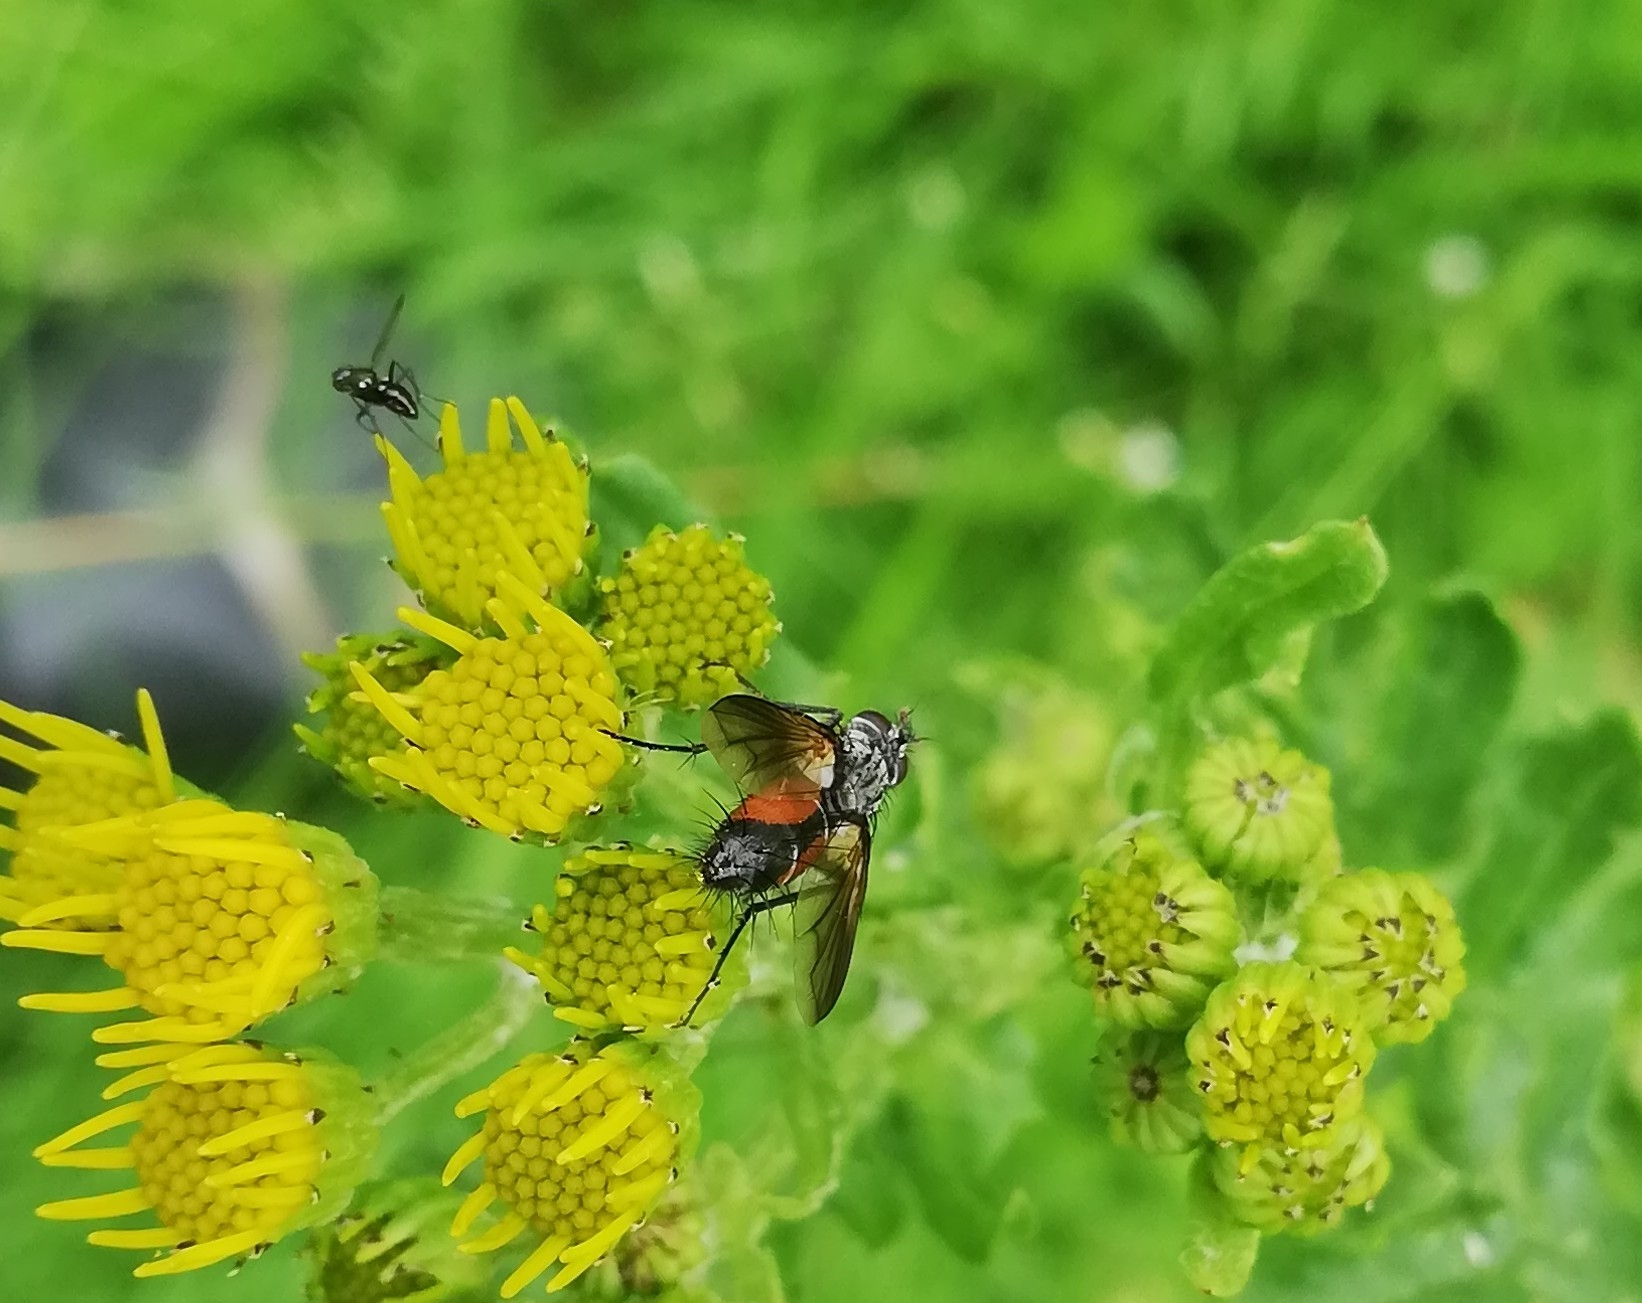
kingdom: Animalia
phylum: Arthropoda
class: Insecta
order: Diptera
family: Tachinidae
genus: Eriothrix
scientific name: Eriothrix rufomaculatus
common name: Rød snylteflue
